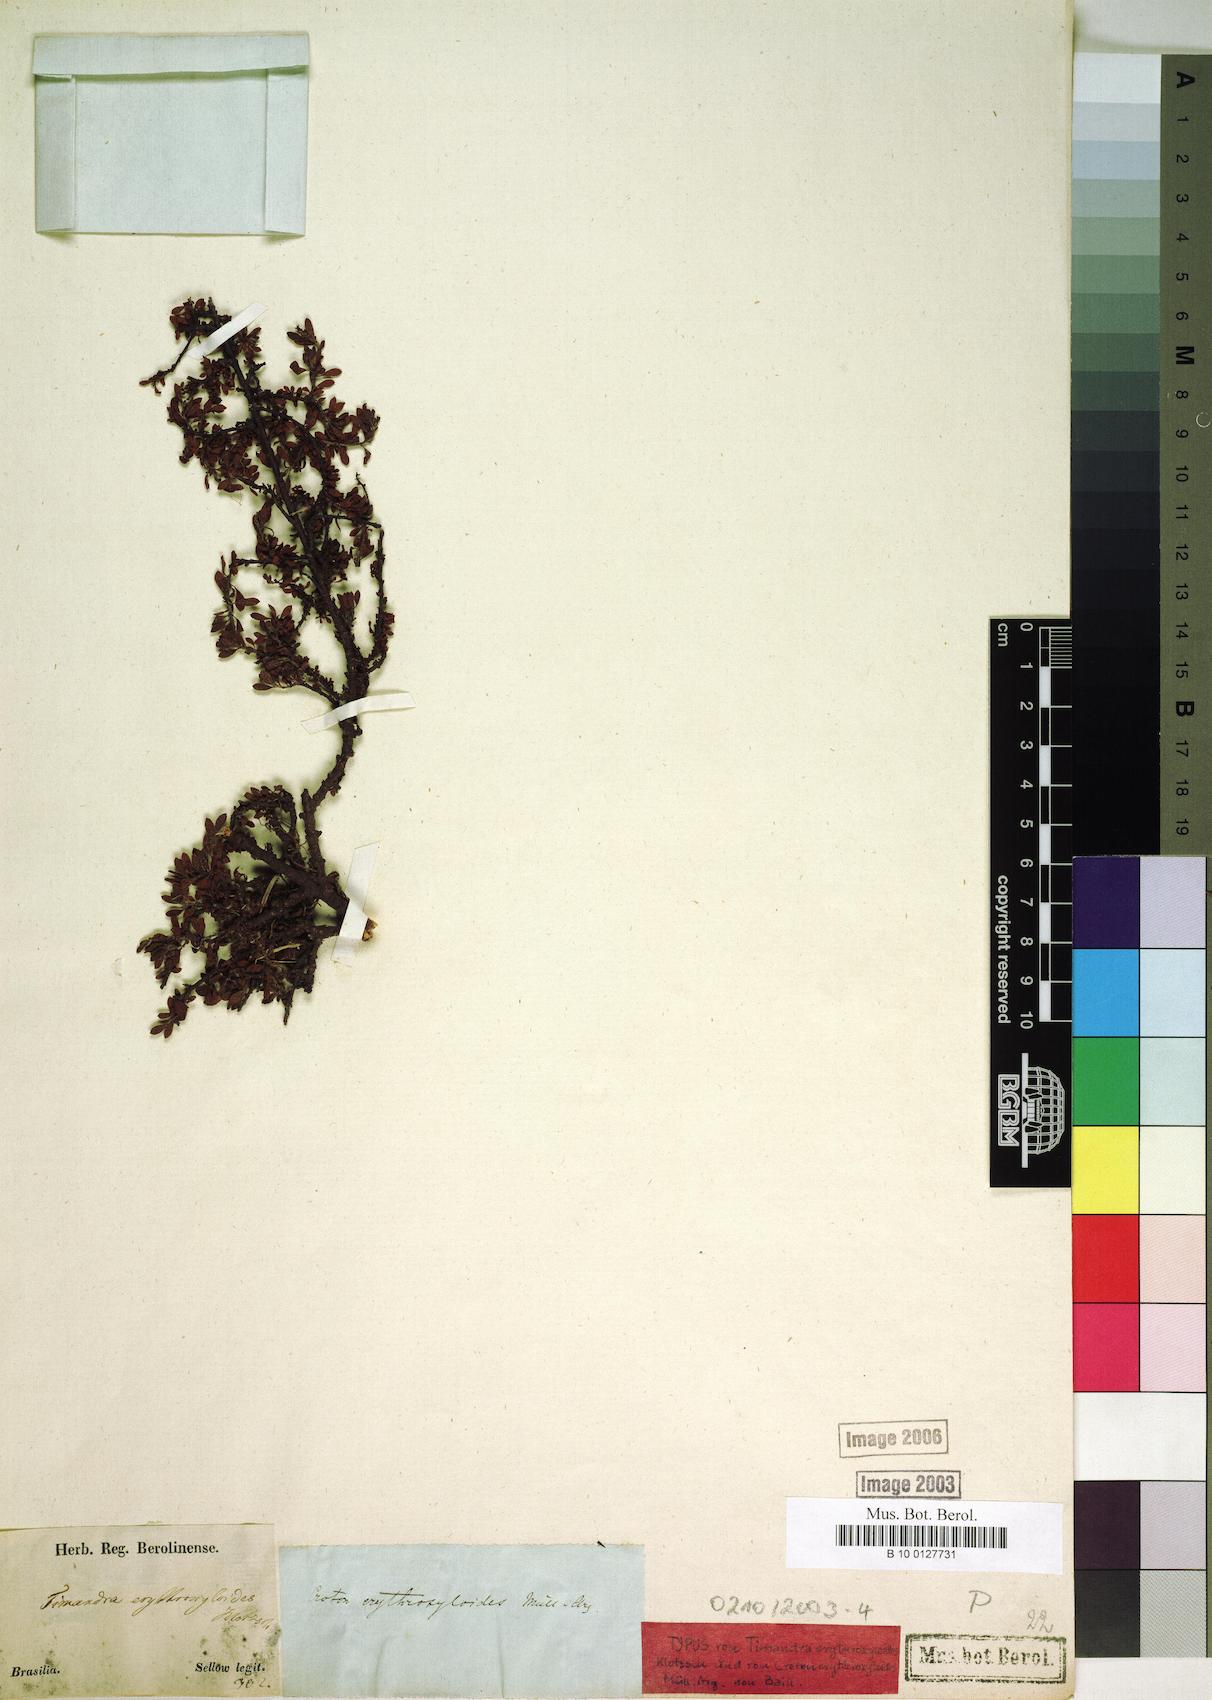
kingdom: Plantae
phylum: Tracheophyta
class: Magnoliopsida
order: Malpighiales
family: Euphorbiaceae
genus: Croton
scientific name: Croton erythroxyloides
